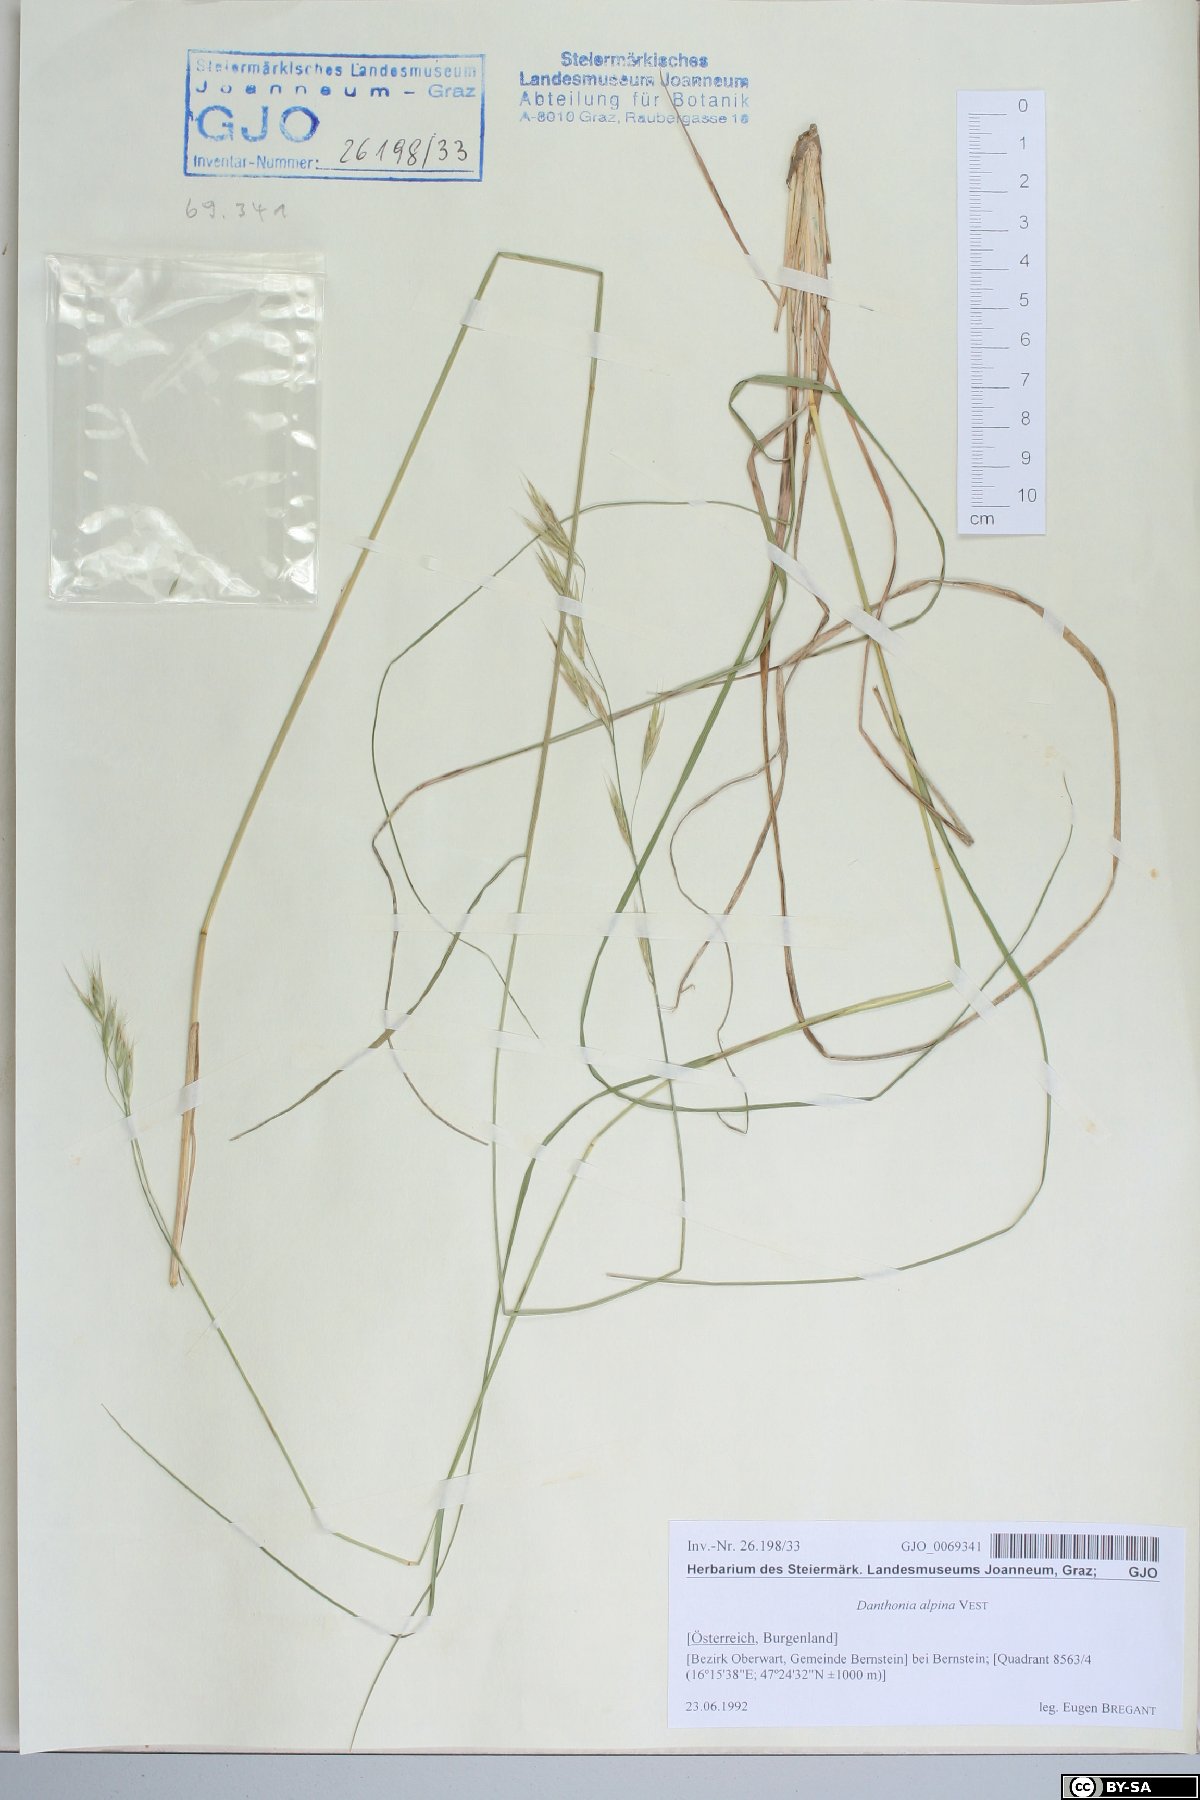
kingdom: Plantae
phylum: Tracheophyta
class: Liliopsida
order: Poales
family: Poaceae
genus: Danthonia
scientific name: Danthonia alpina
